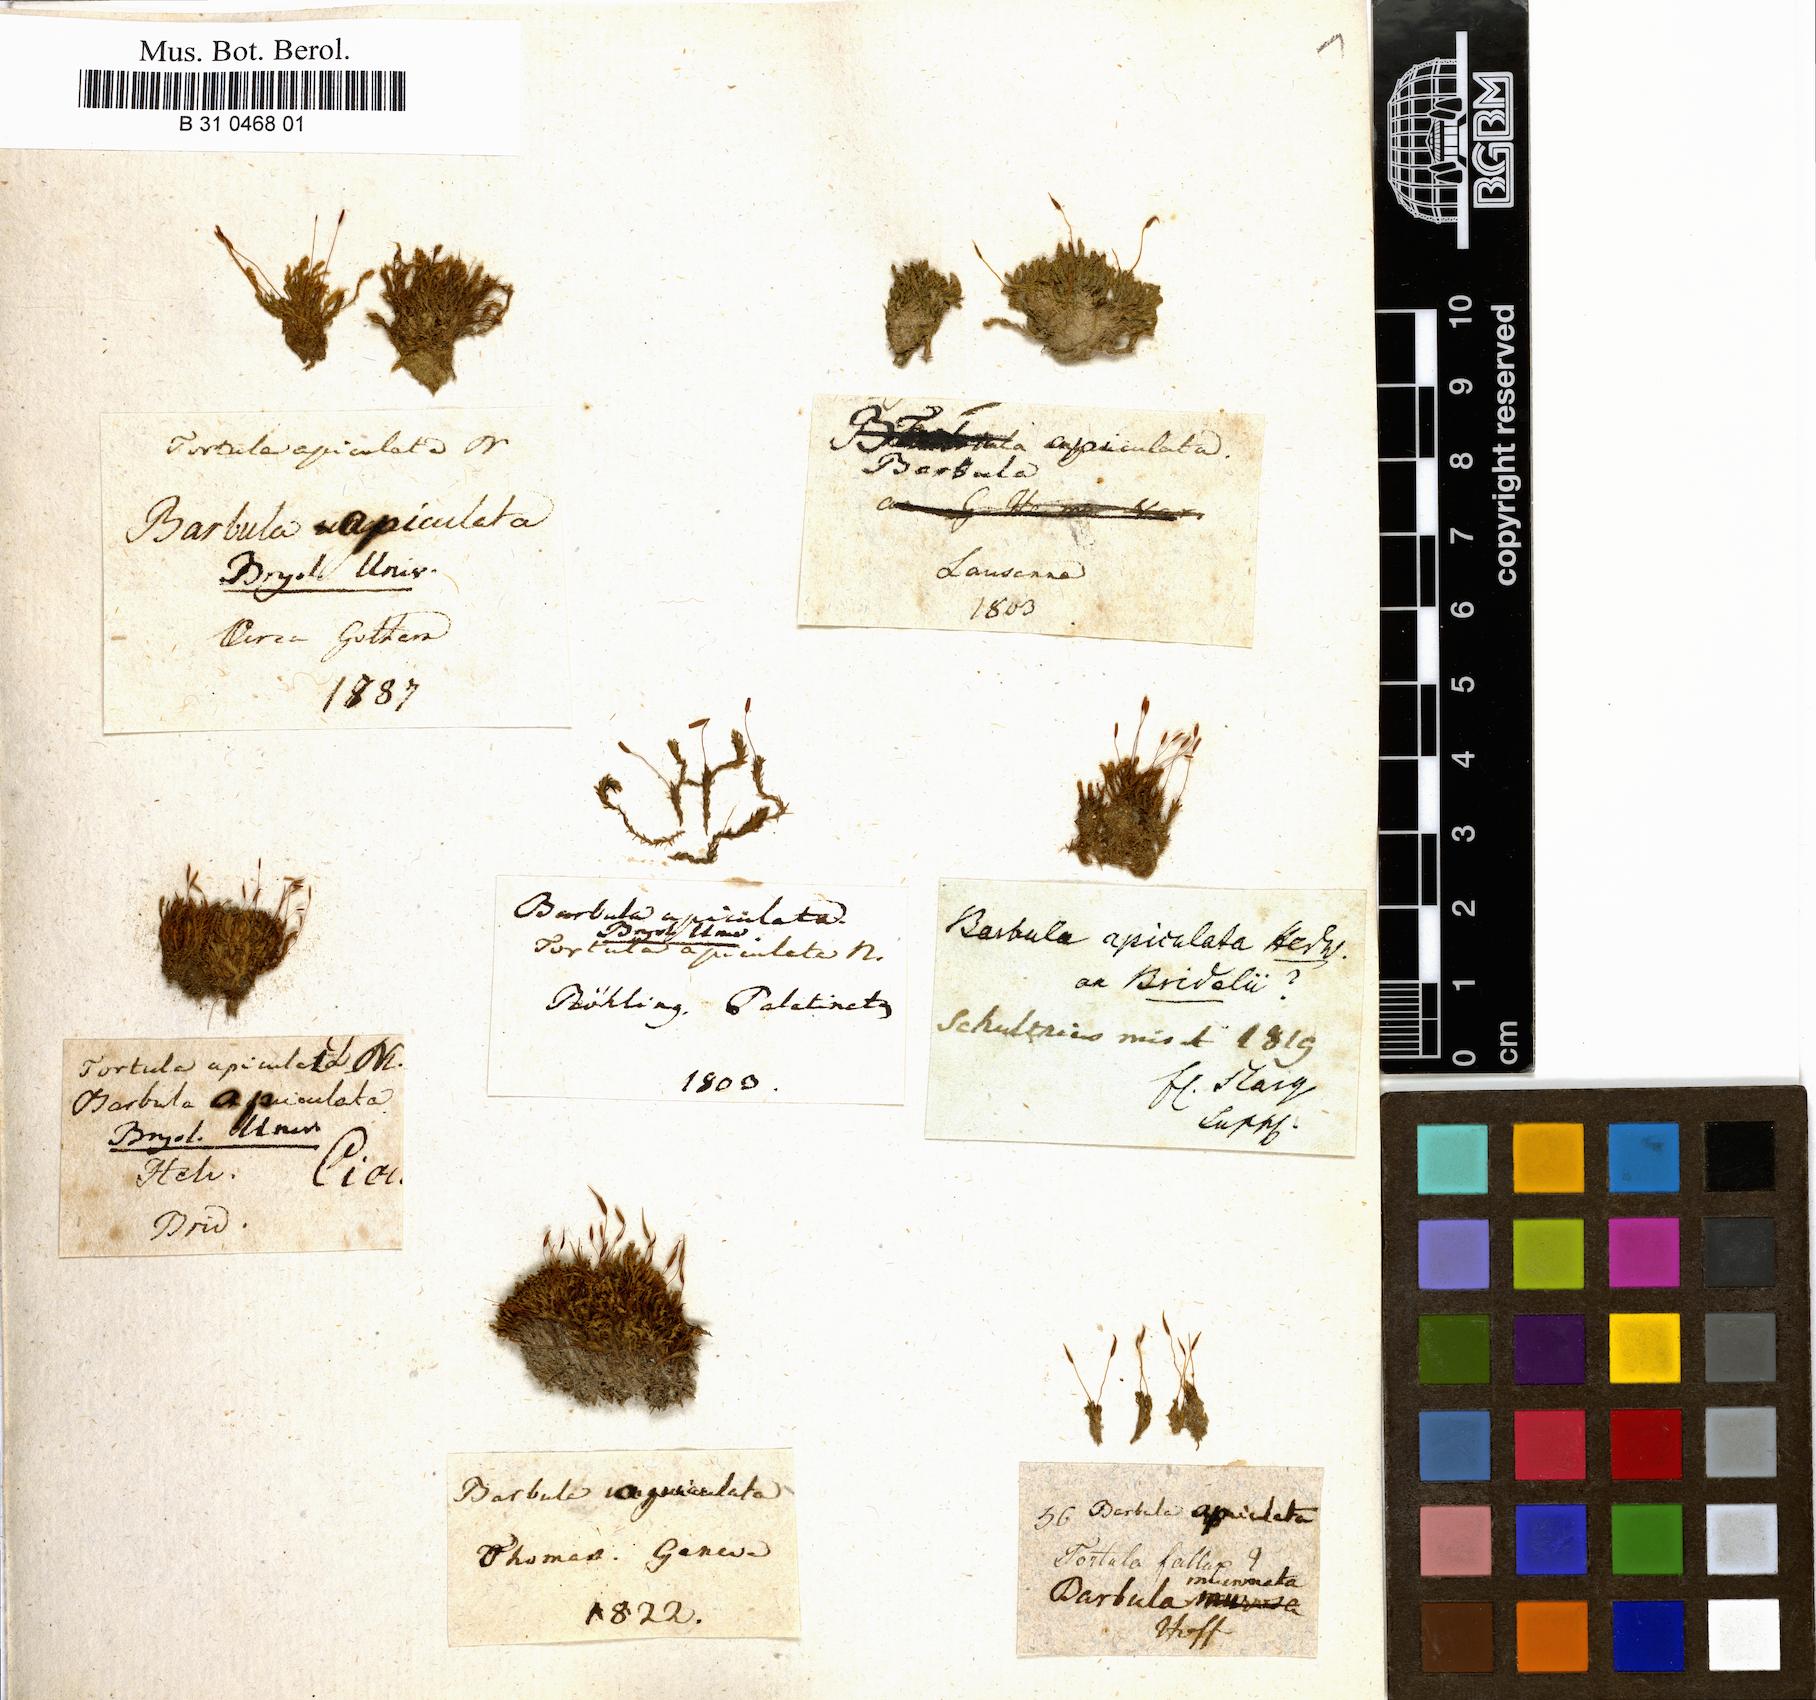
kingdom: Plantae
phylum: Bryophyta
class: Bryopsida
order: Pottiales
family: Pottiaceae
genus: Barbula
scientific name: Barbula unguiculata
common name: Prickly beard moss
